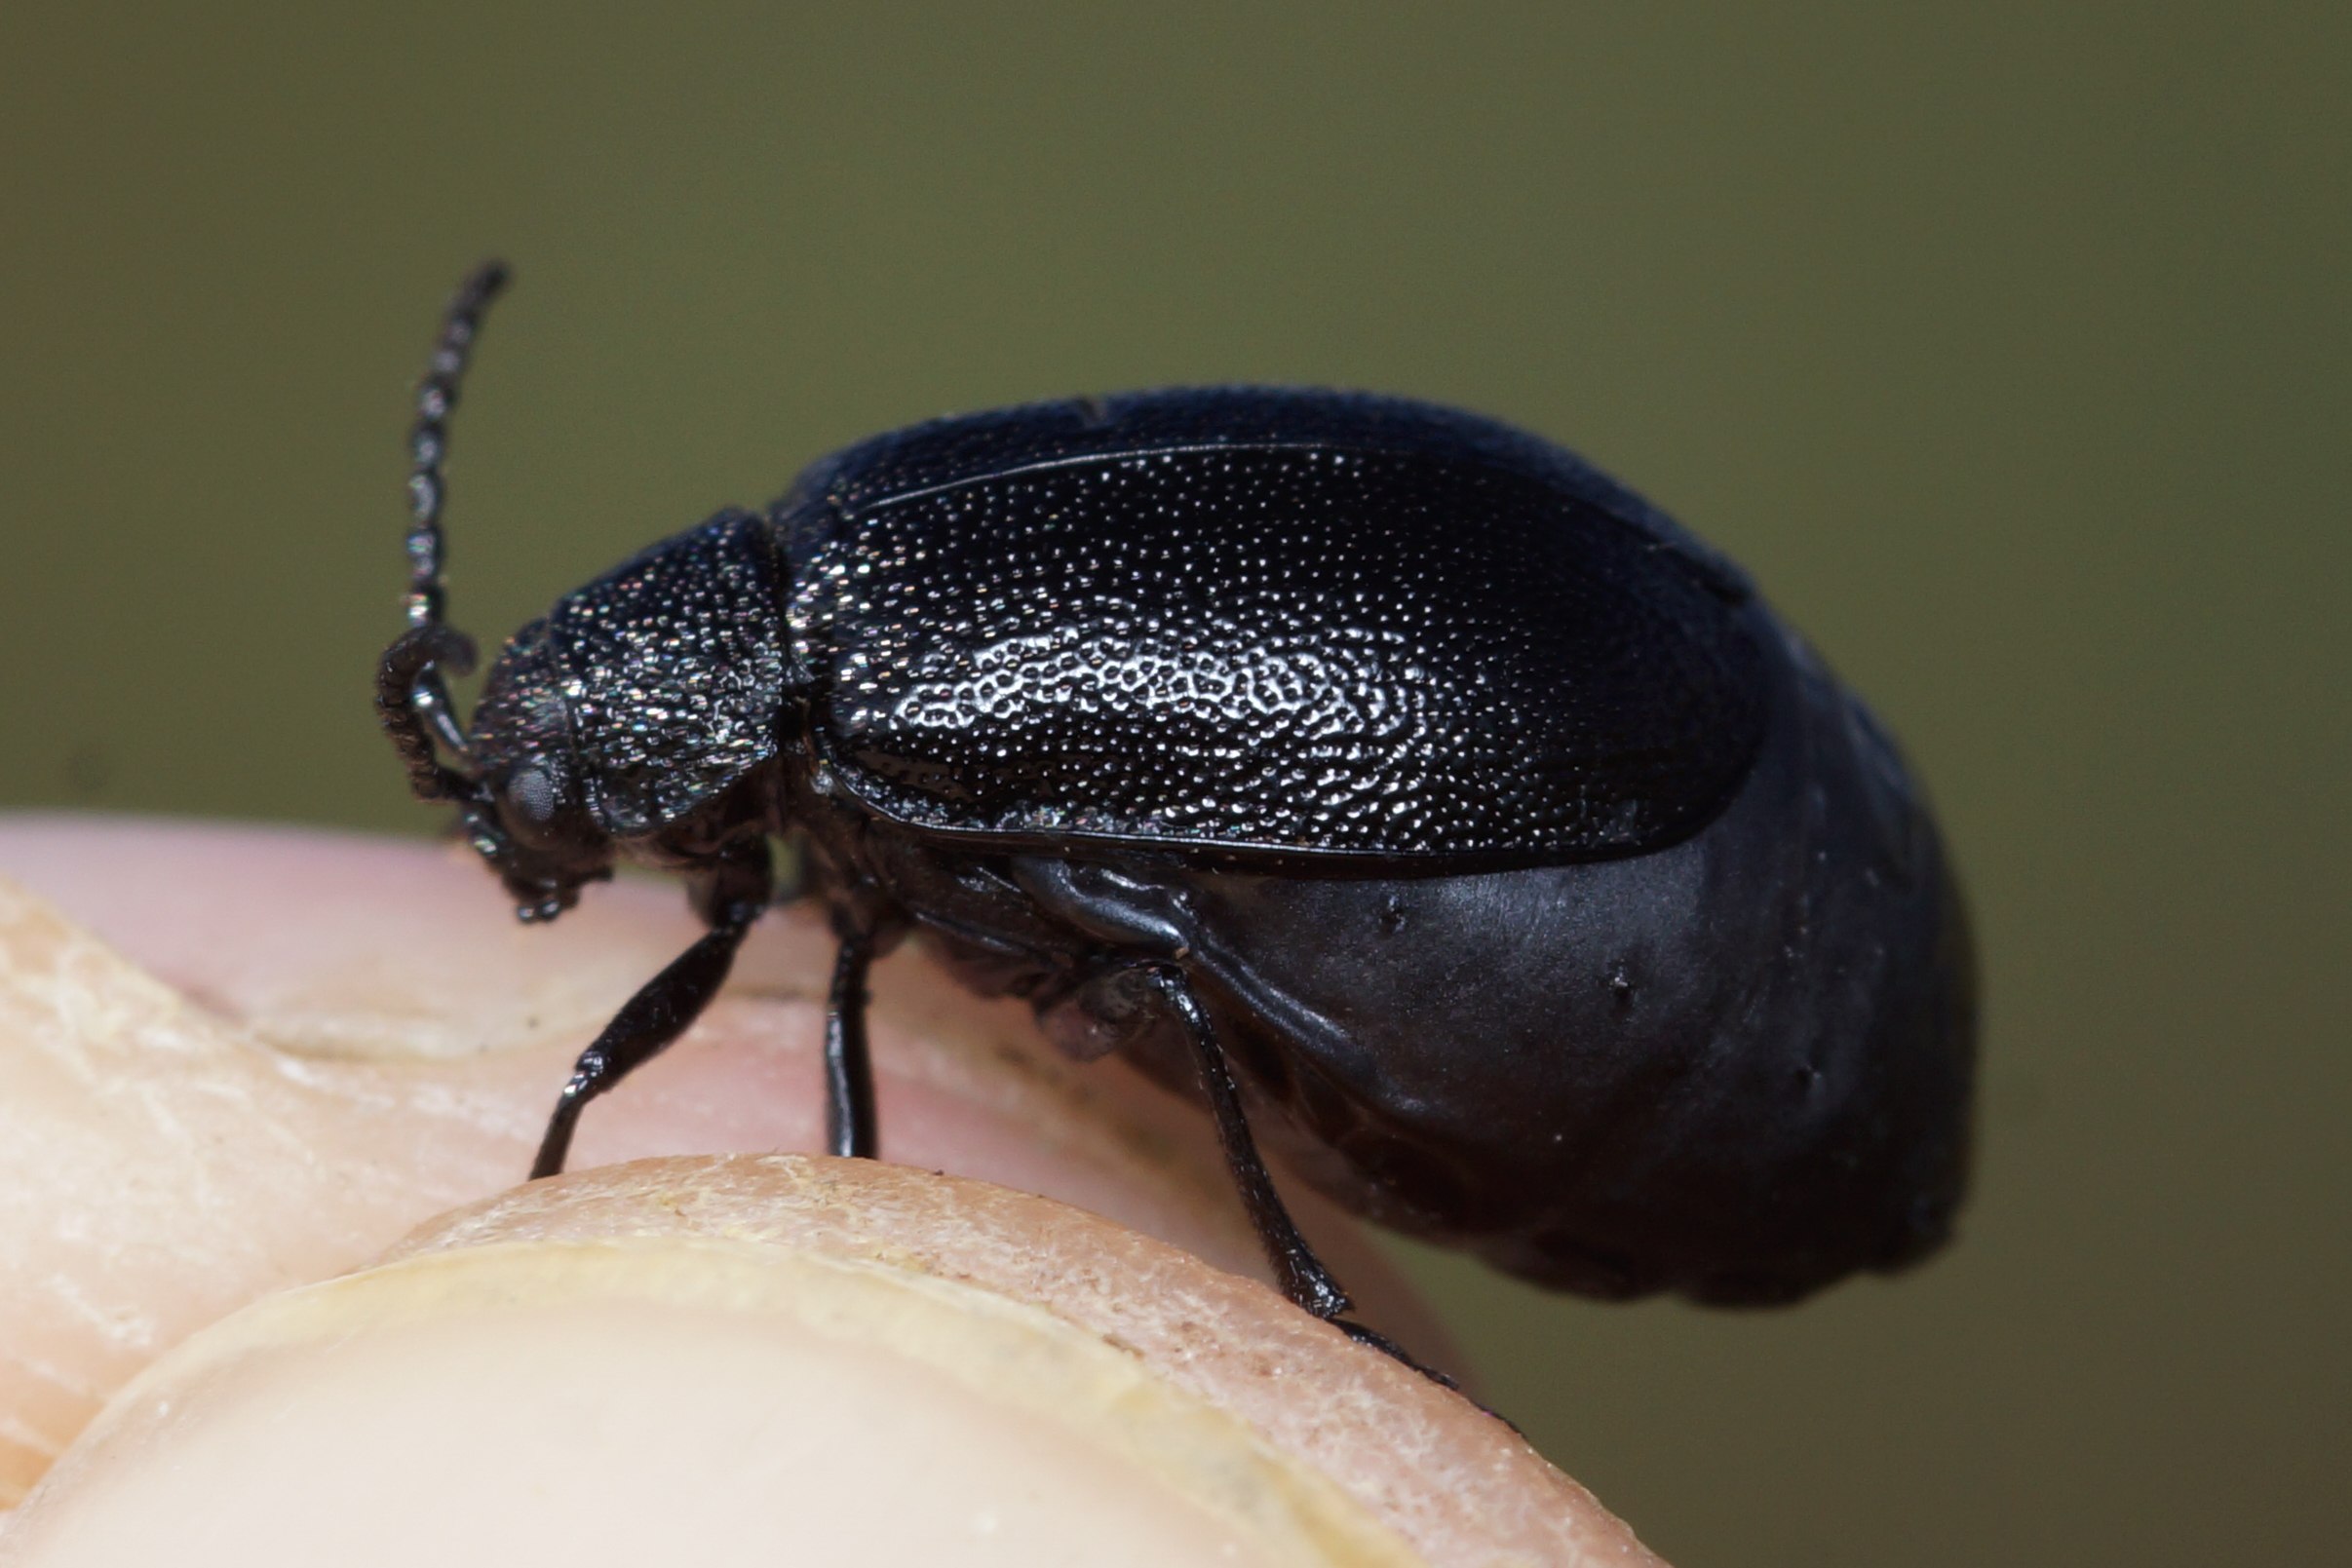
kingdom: Animalia
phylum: Arthropoda
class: Insecta
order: Coleoptera
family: Chrysomelidae
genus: Galeruca
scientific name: Galeruca tanaceti
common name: Rejnfanbladbille
